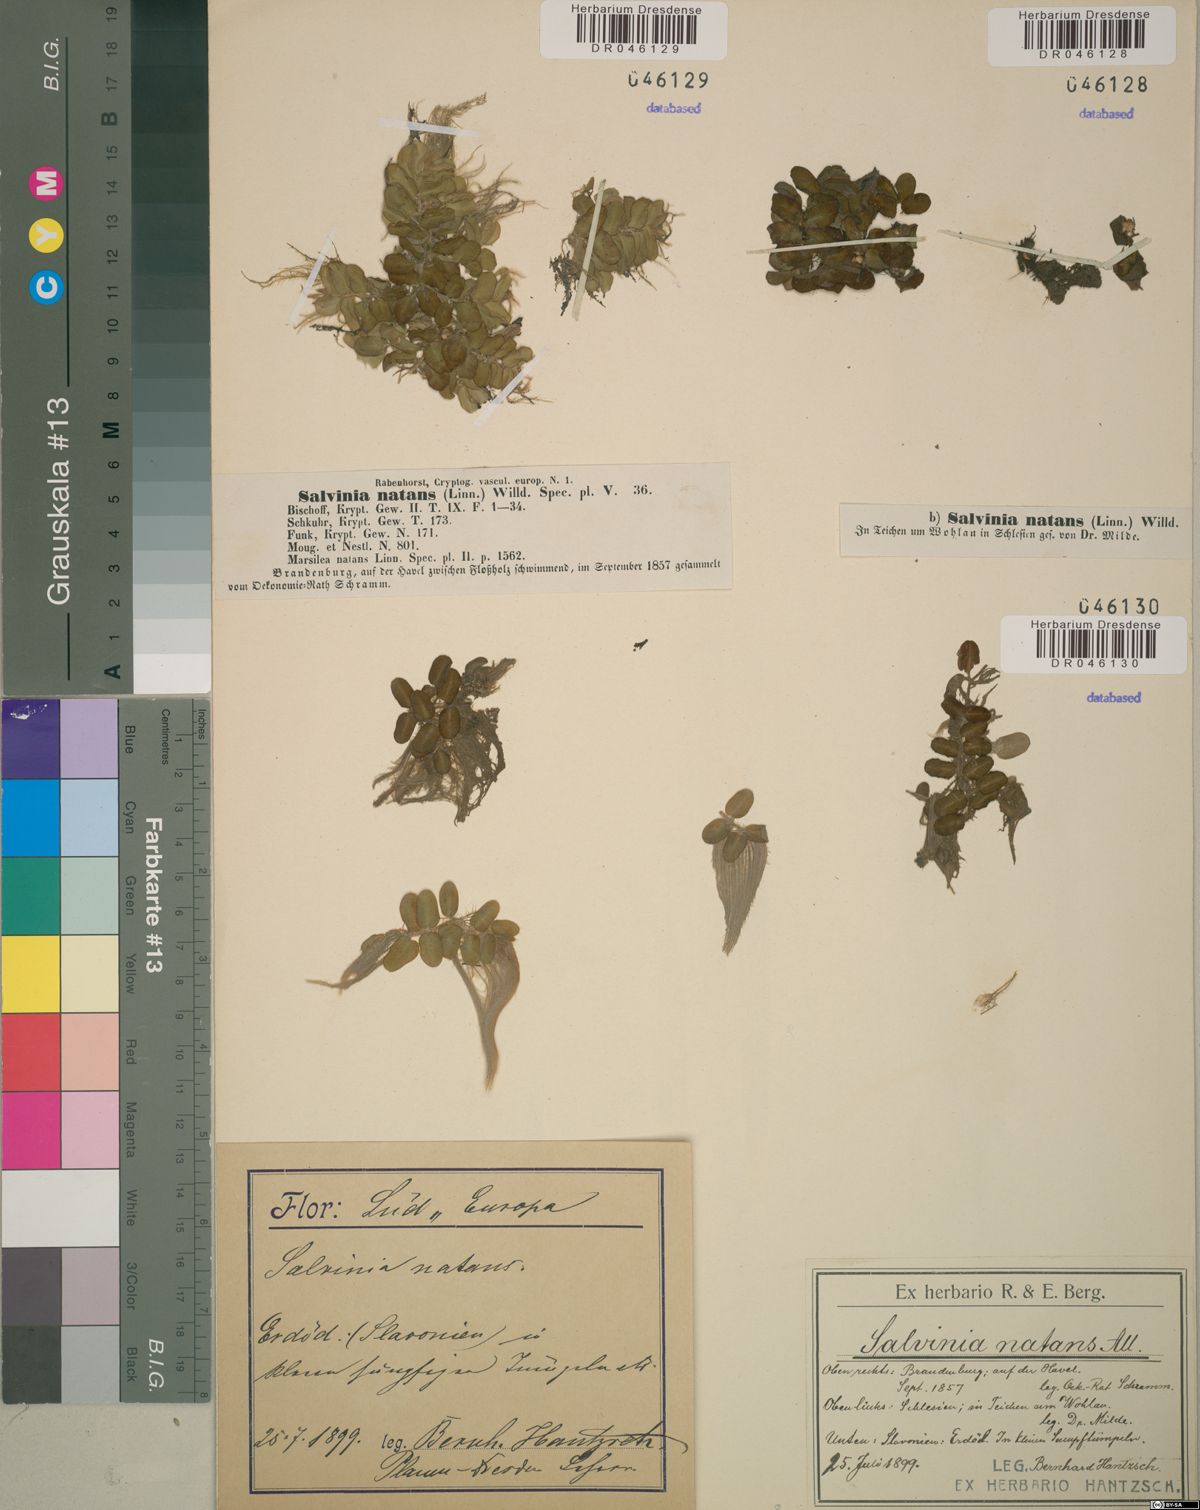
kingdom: Plantae
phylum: Tracheophyta
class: Polypodiopsida
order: Salviniales
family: Salviniaceae
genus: Salvinia
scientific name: Salvinia natans
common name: Floating fern
